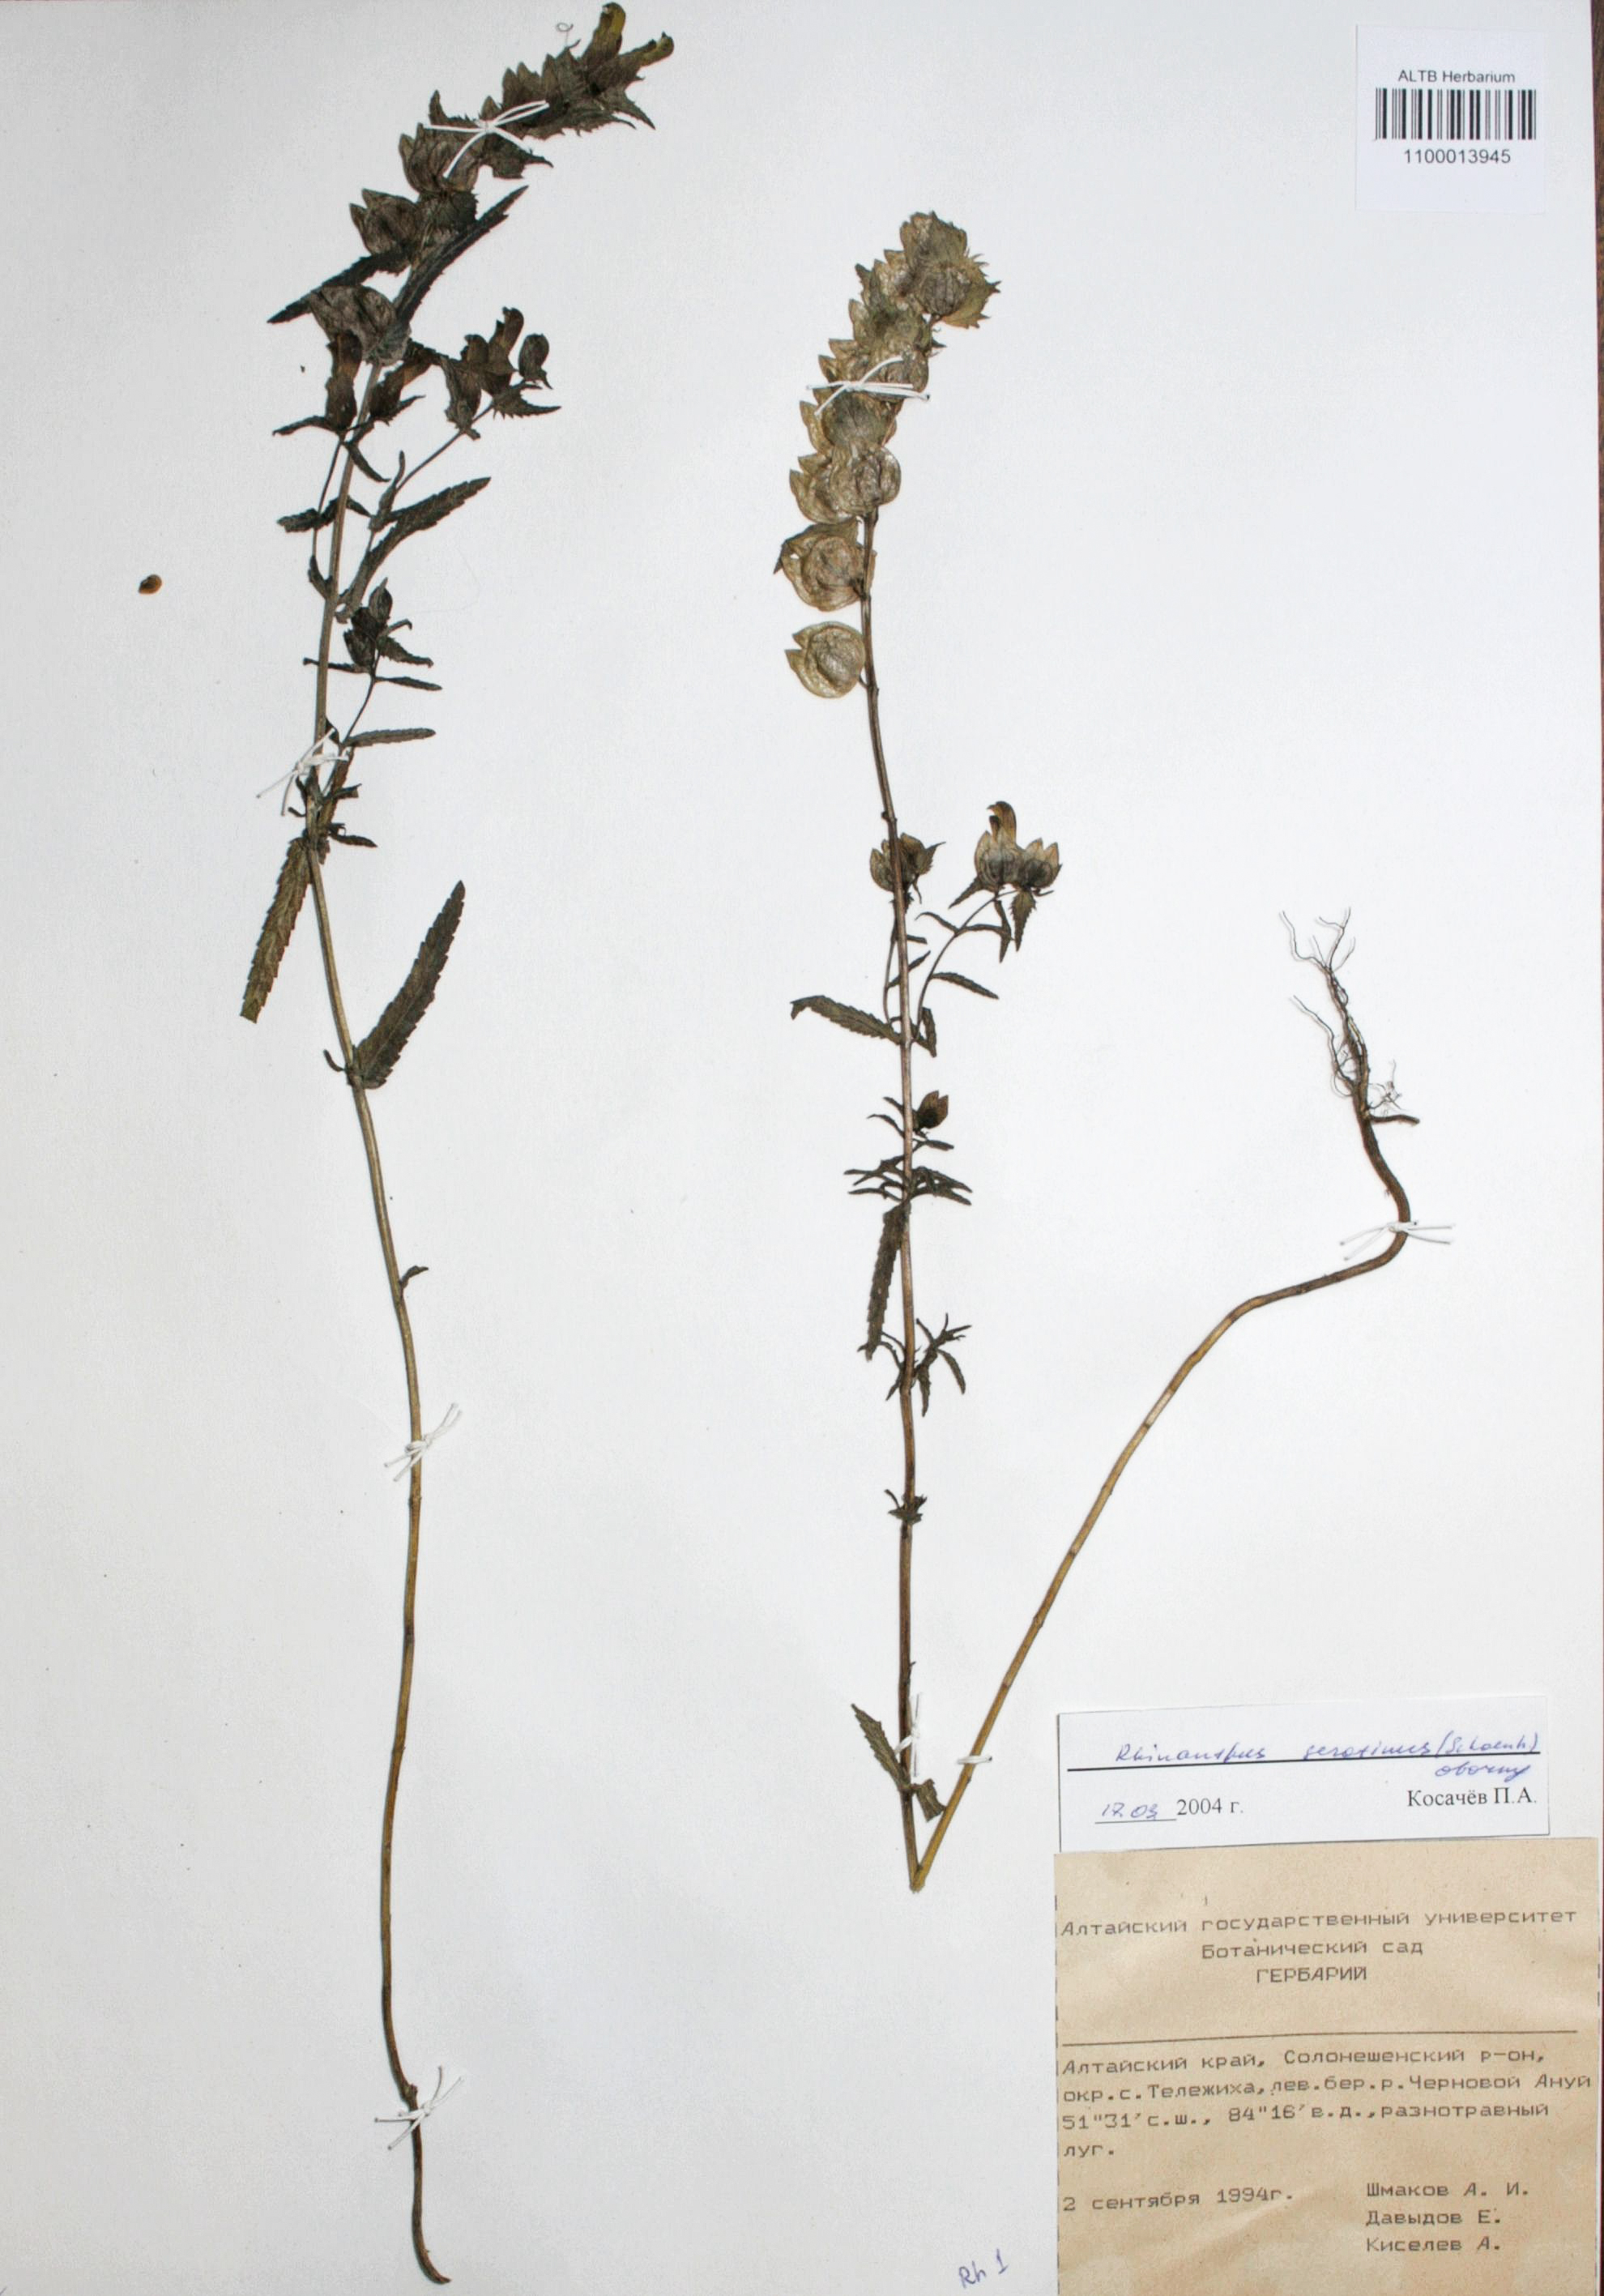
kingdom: Plantae
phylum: Tracheophyta
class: Magnoliopsida
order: Lamiales
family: Orobanchaceae
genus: Rhinanthus
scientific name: Rhinanthus serotinus
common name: Late-flowering yellow rattle
